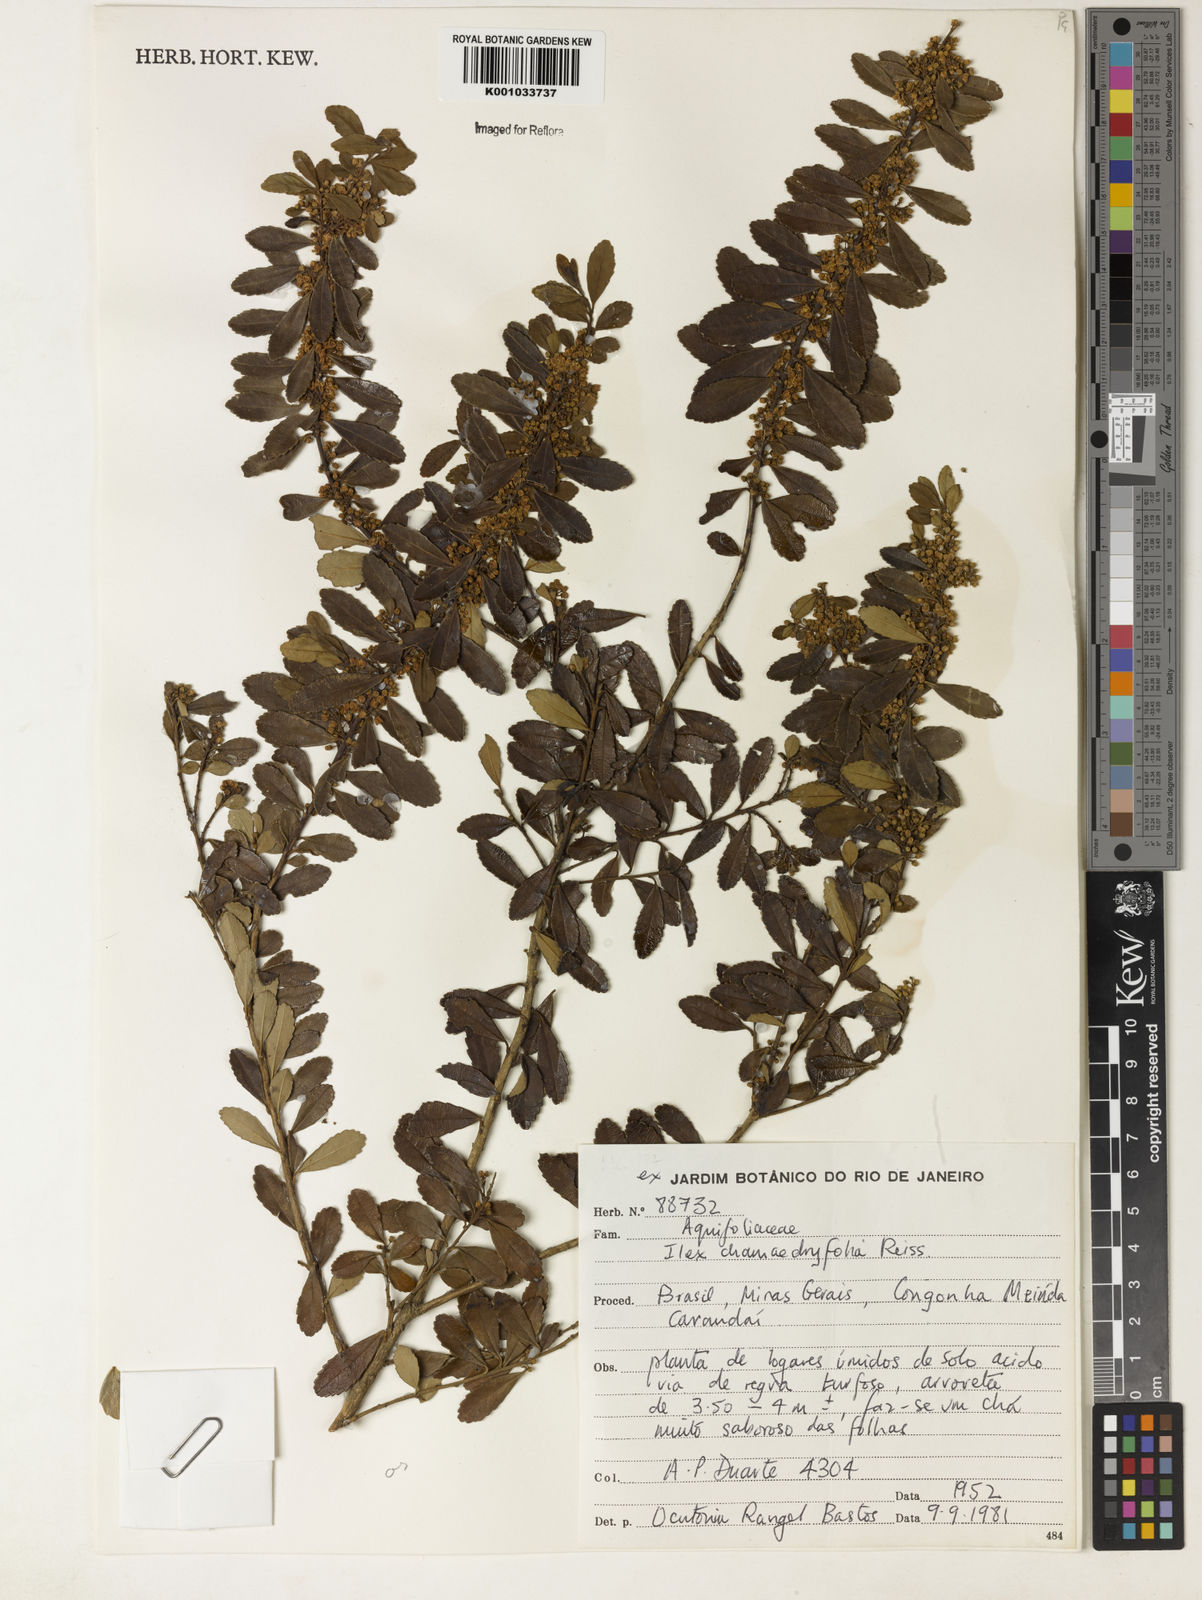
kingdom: Plantae
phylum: Tracheophyta
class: Magnoliopsida
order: Aquifoliales
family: Aquifoliaceae
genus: Ilex
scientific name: Ilex chamaedryfolia
